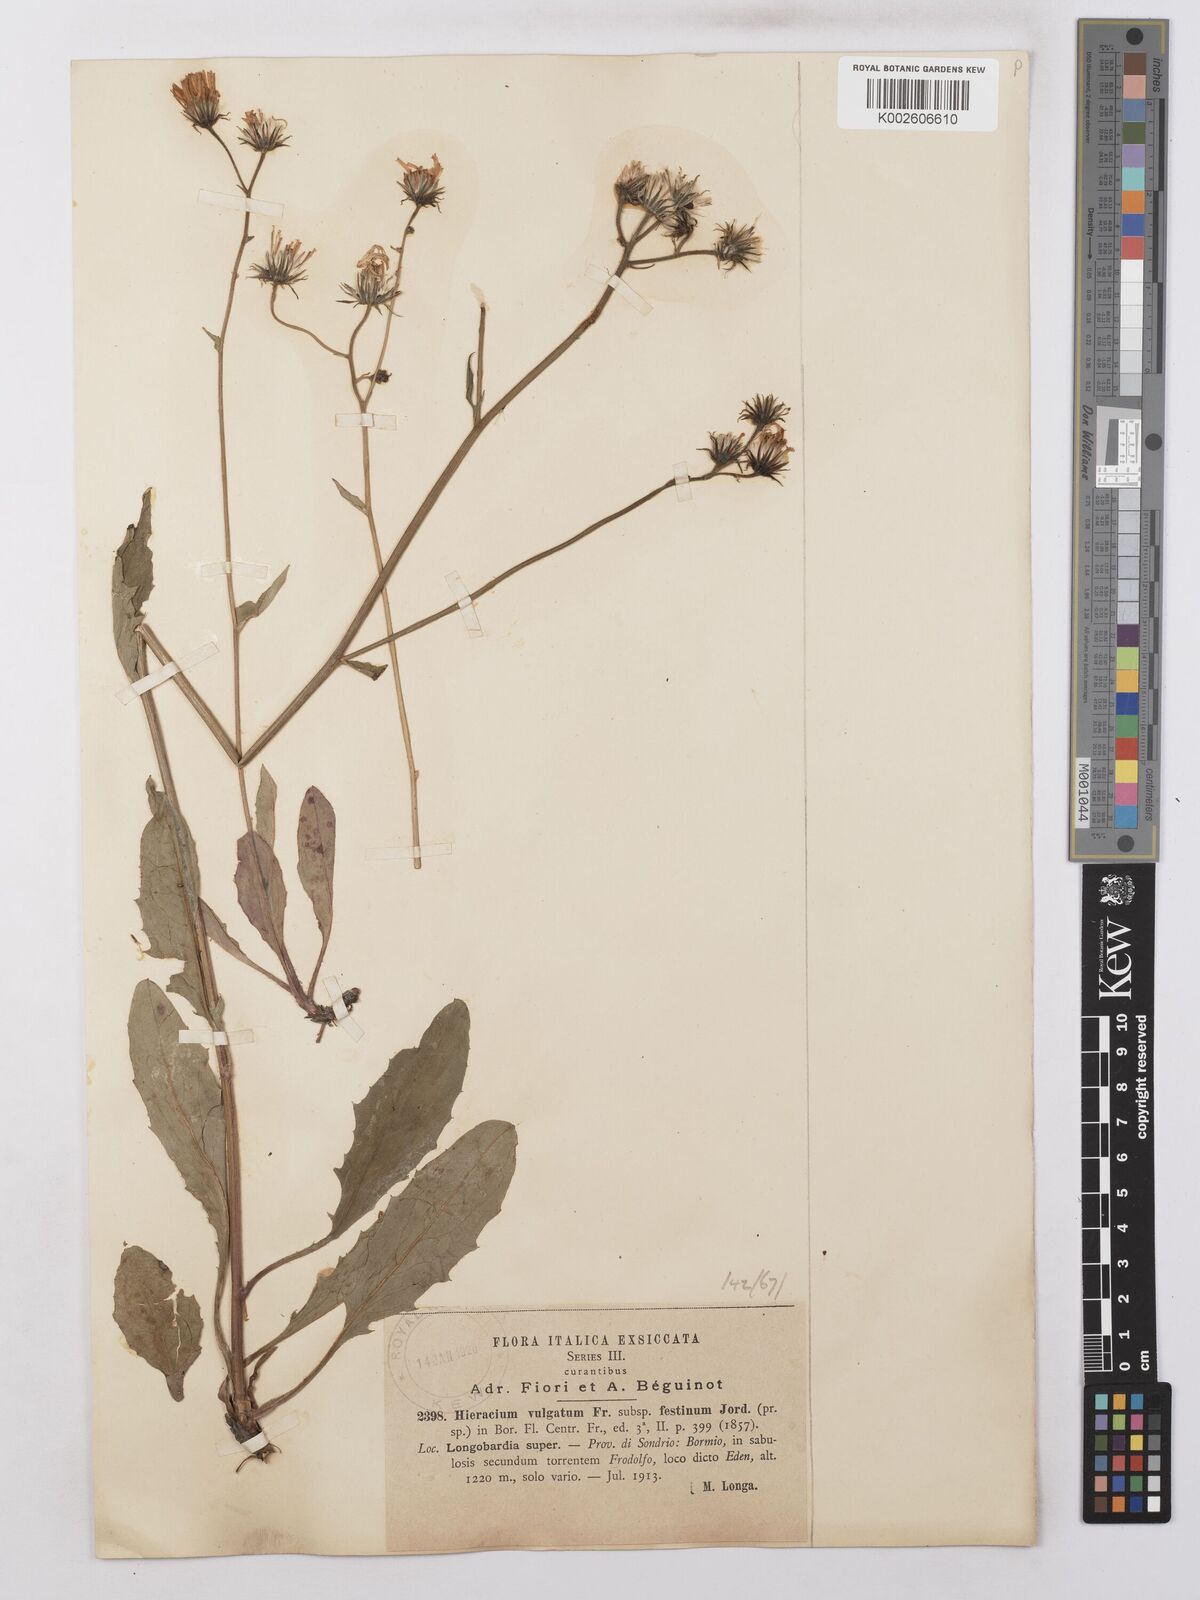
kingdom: Plantae
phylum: Tracheophyta
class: Magnoliopsida
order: Asterales
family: Asteraceae
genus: Hieracium
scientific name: Hieracium lachenalii
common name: Common hawkweed
